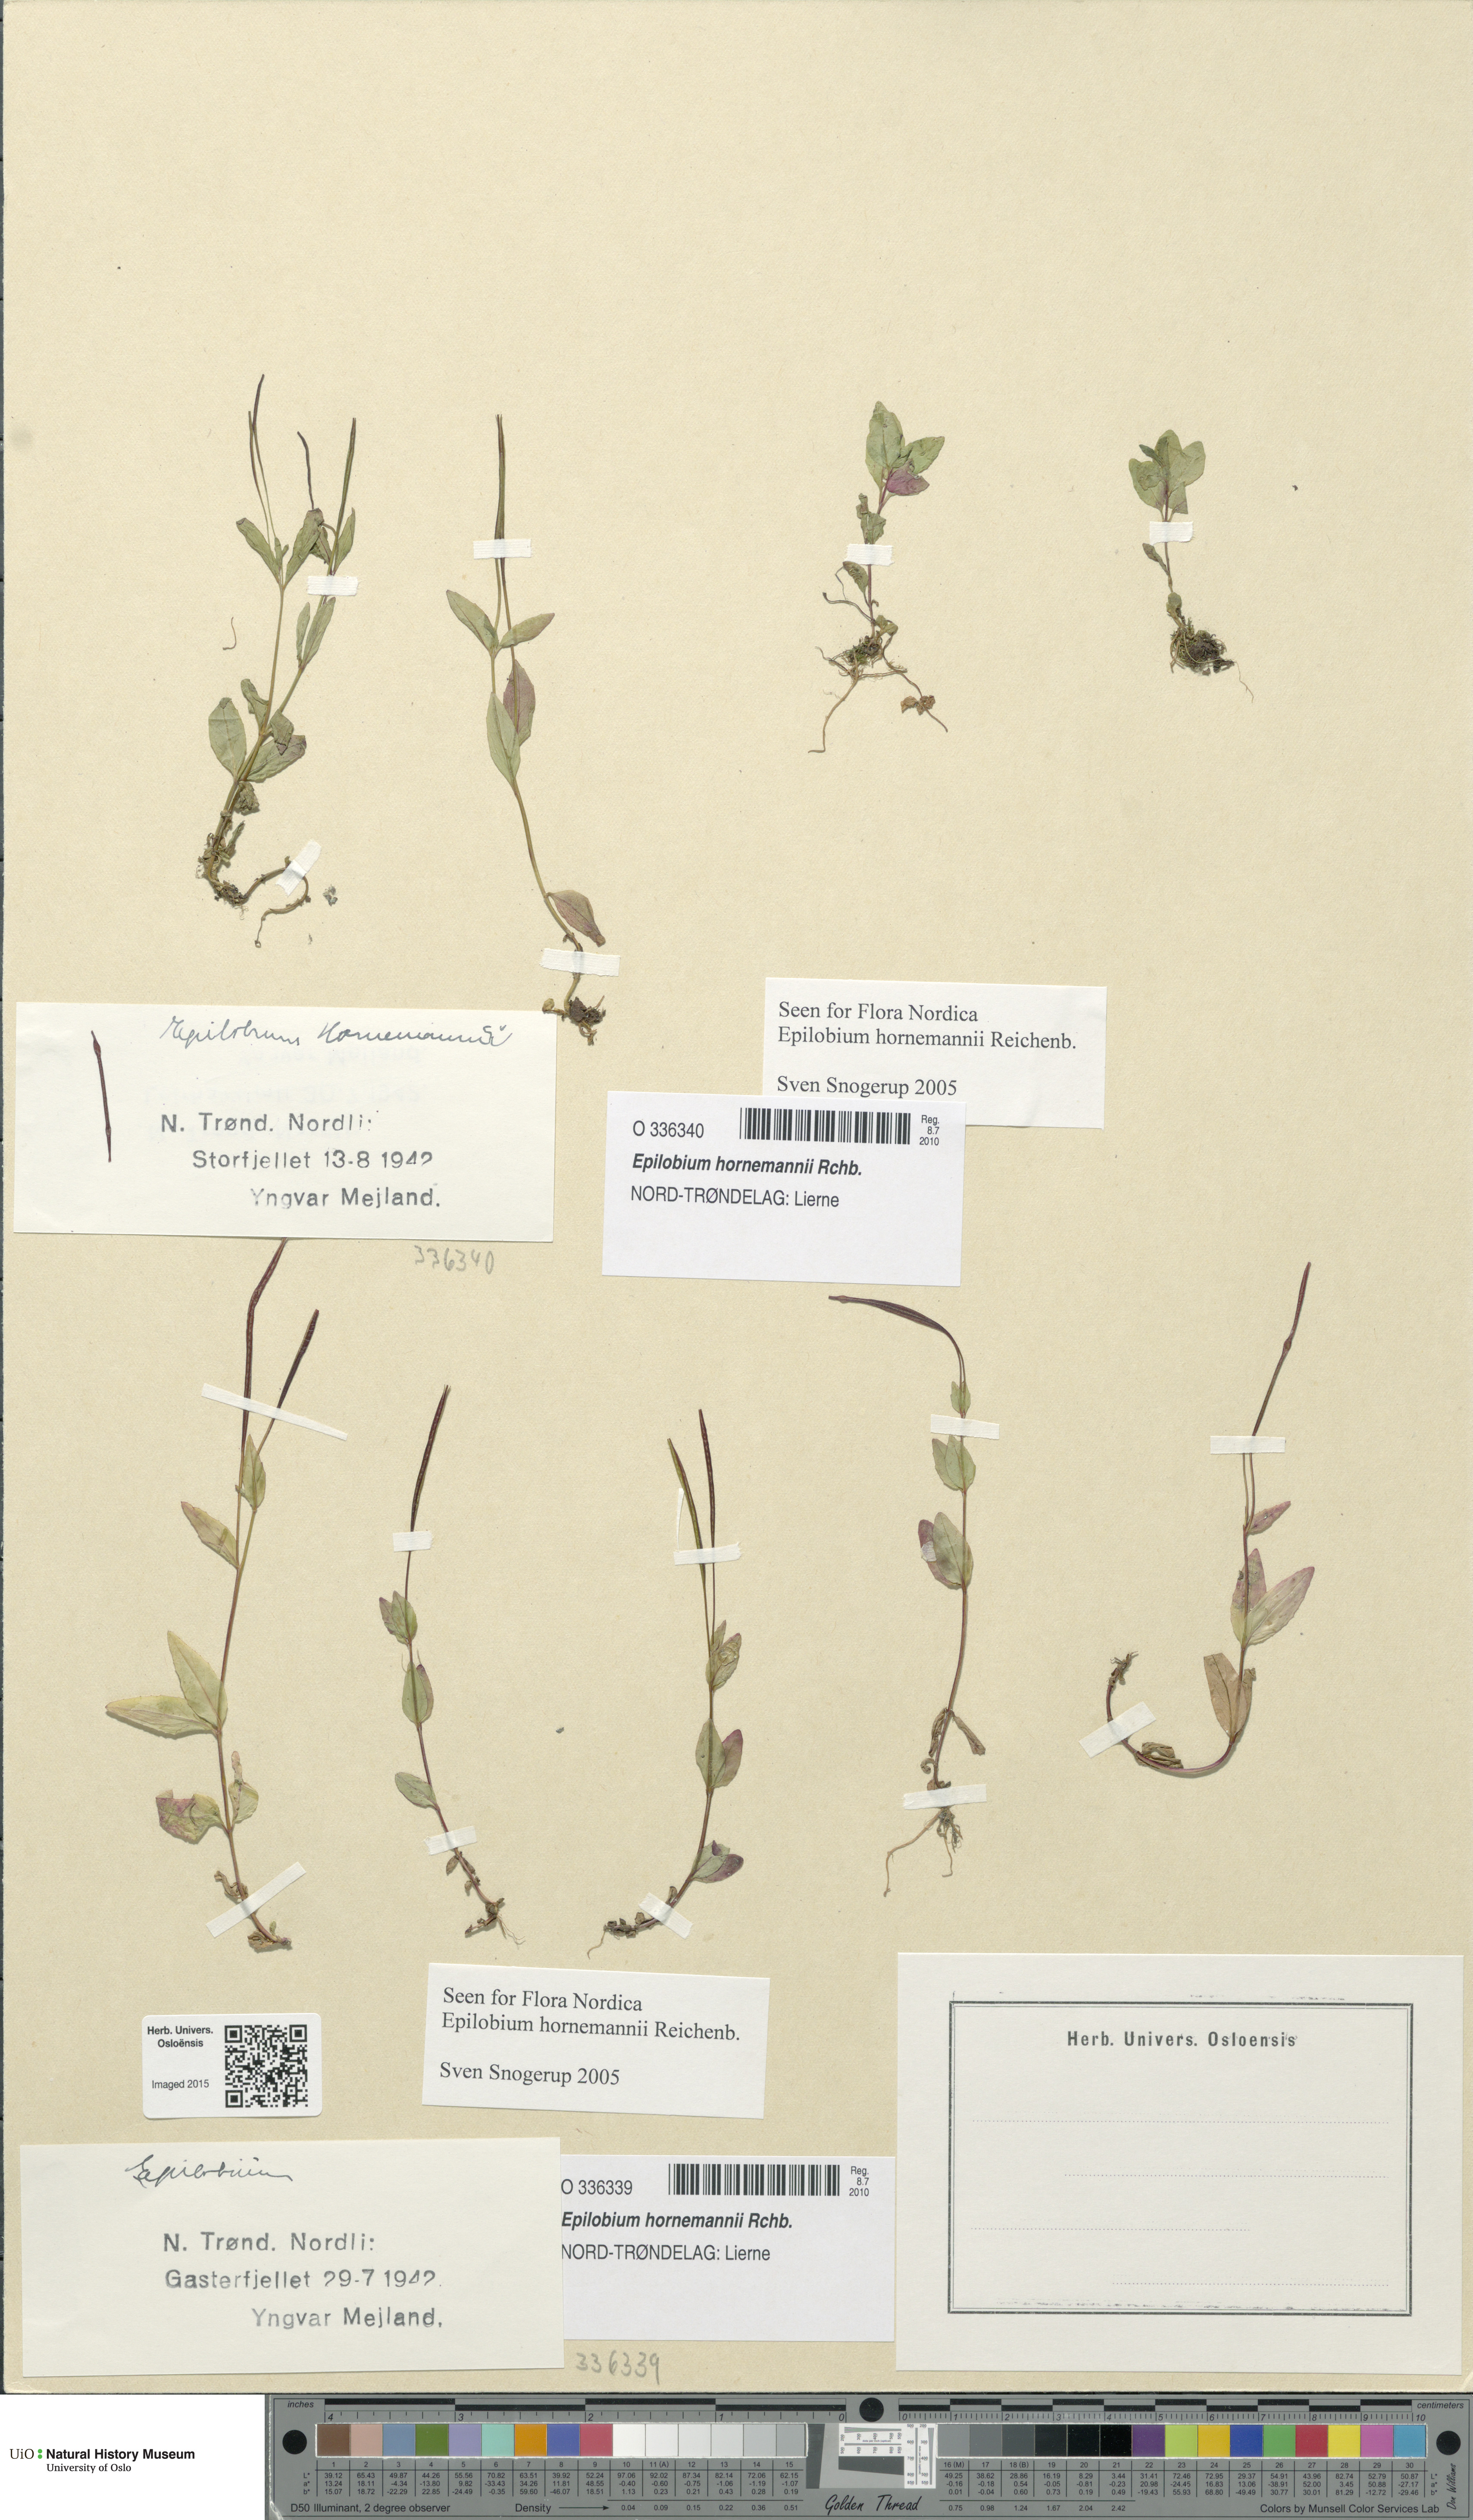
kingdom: Plantae
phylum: Tracheophyta
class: Magnoliopsida
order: Myrtales
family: Onagraceae
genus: Epilobium
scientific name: Epilobium hornemannii
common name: Hornemann's willowherb
